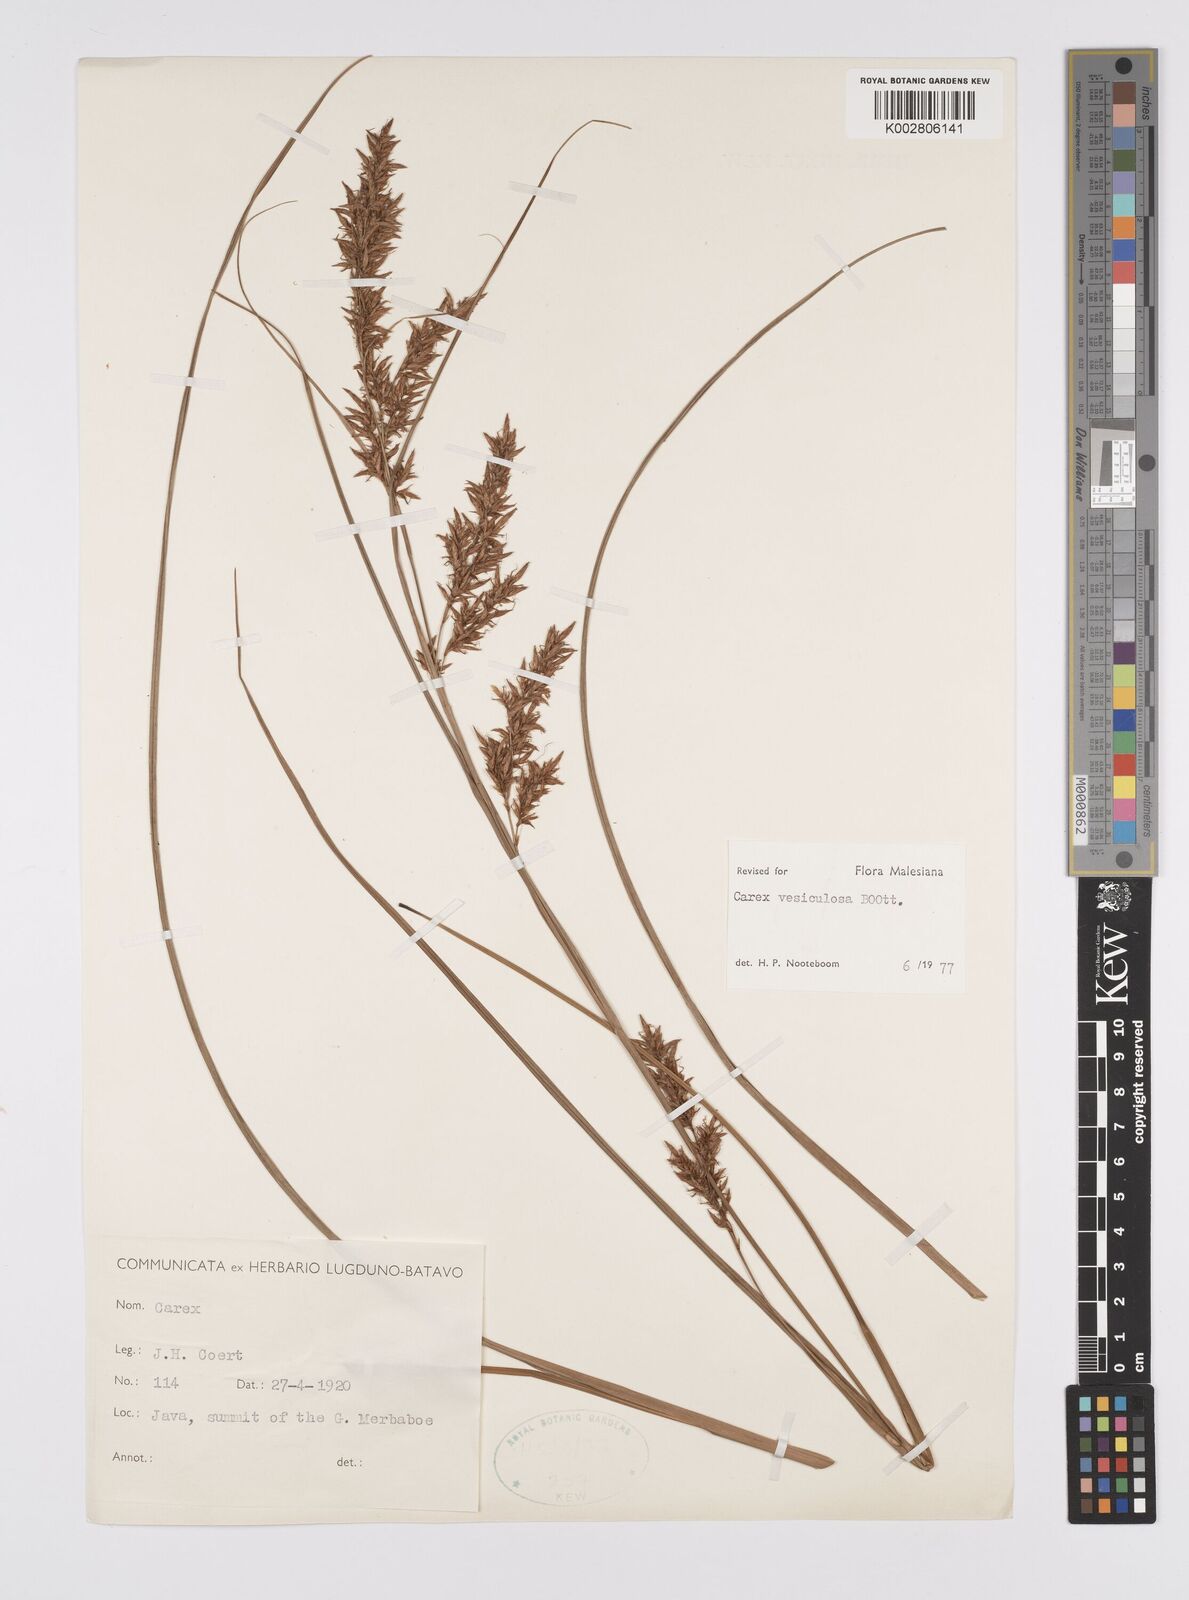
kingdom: Plantae
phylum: Tracheophyta
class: Liliopsida
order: Poales
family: Cyperaceae
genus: Carex
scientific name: Carex vesiculosa
